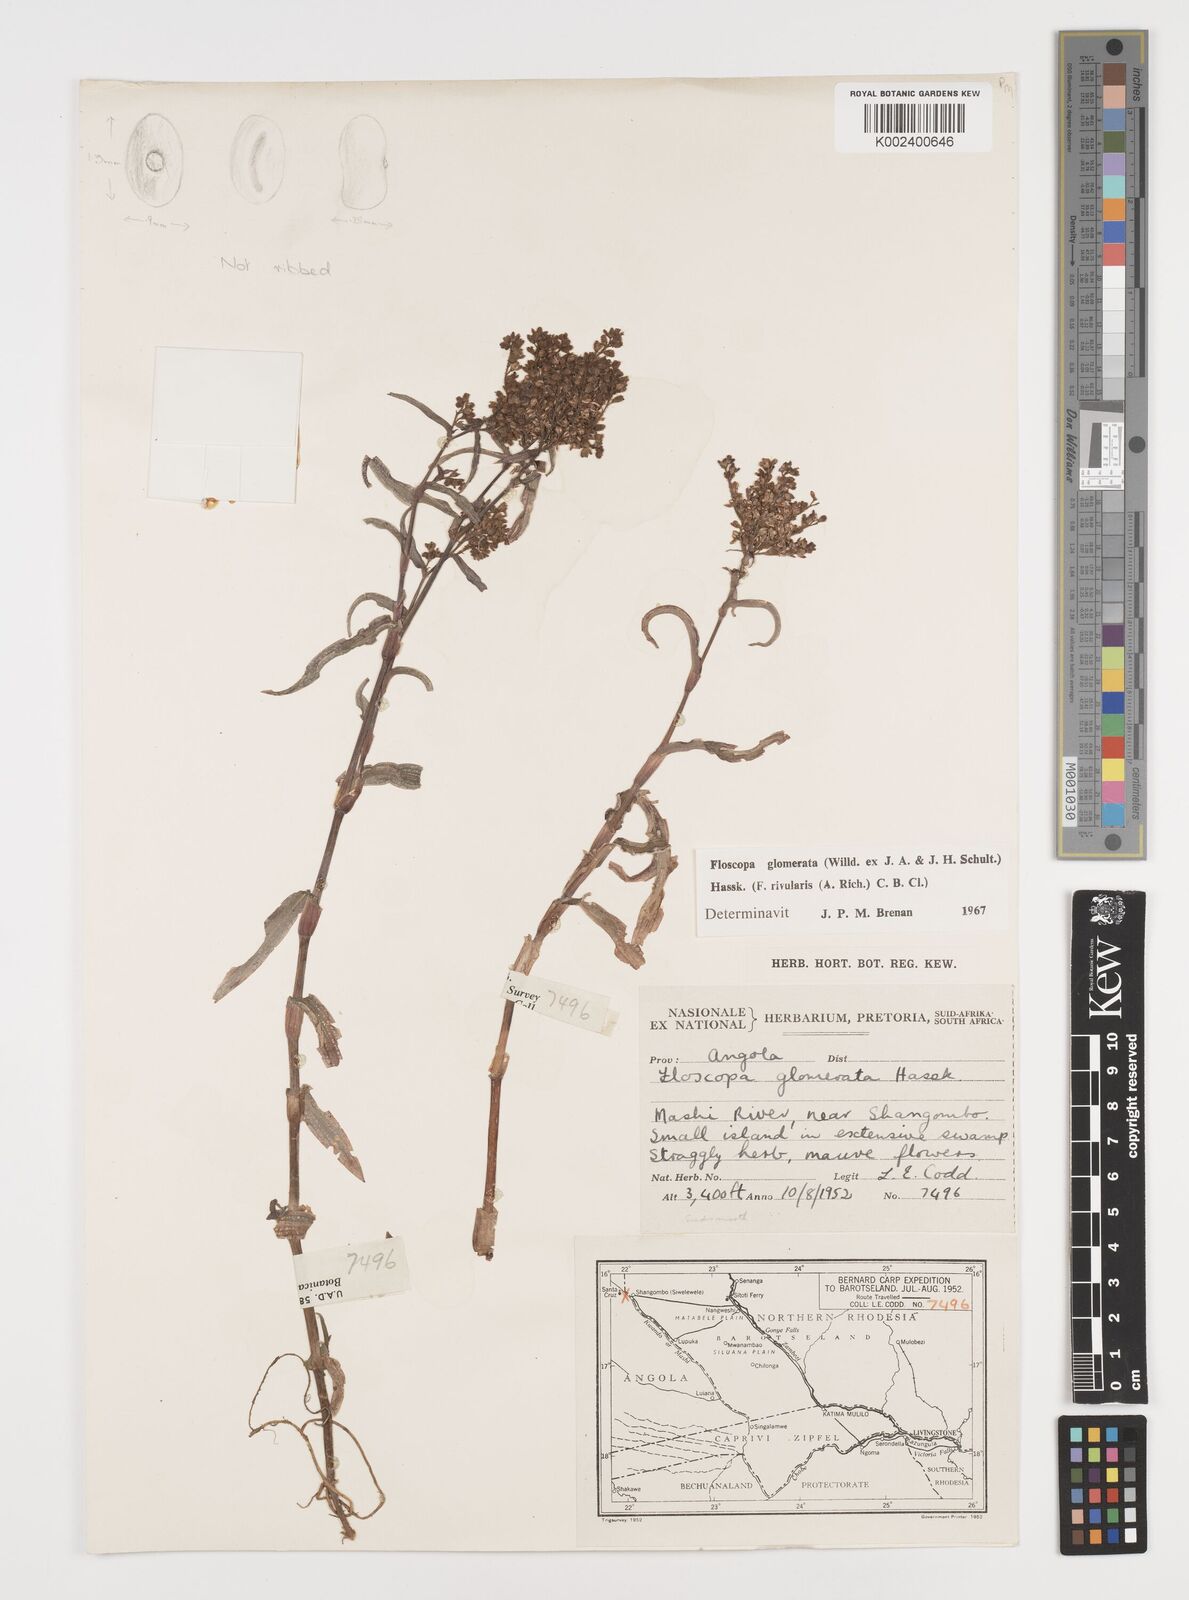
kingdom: Plantae
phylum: Tracheophyta
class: Liliopsida
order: Commelinales
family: Commelinaceae
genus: Floscopa
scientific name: Floscopa glomerata
